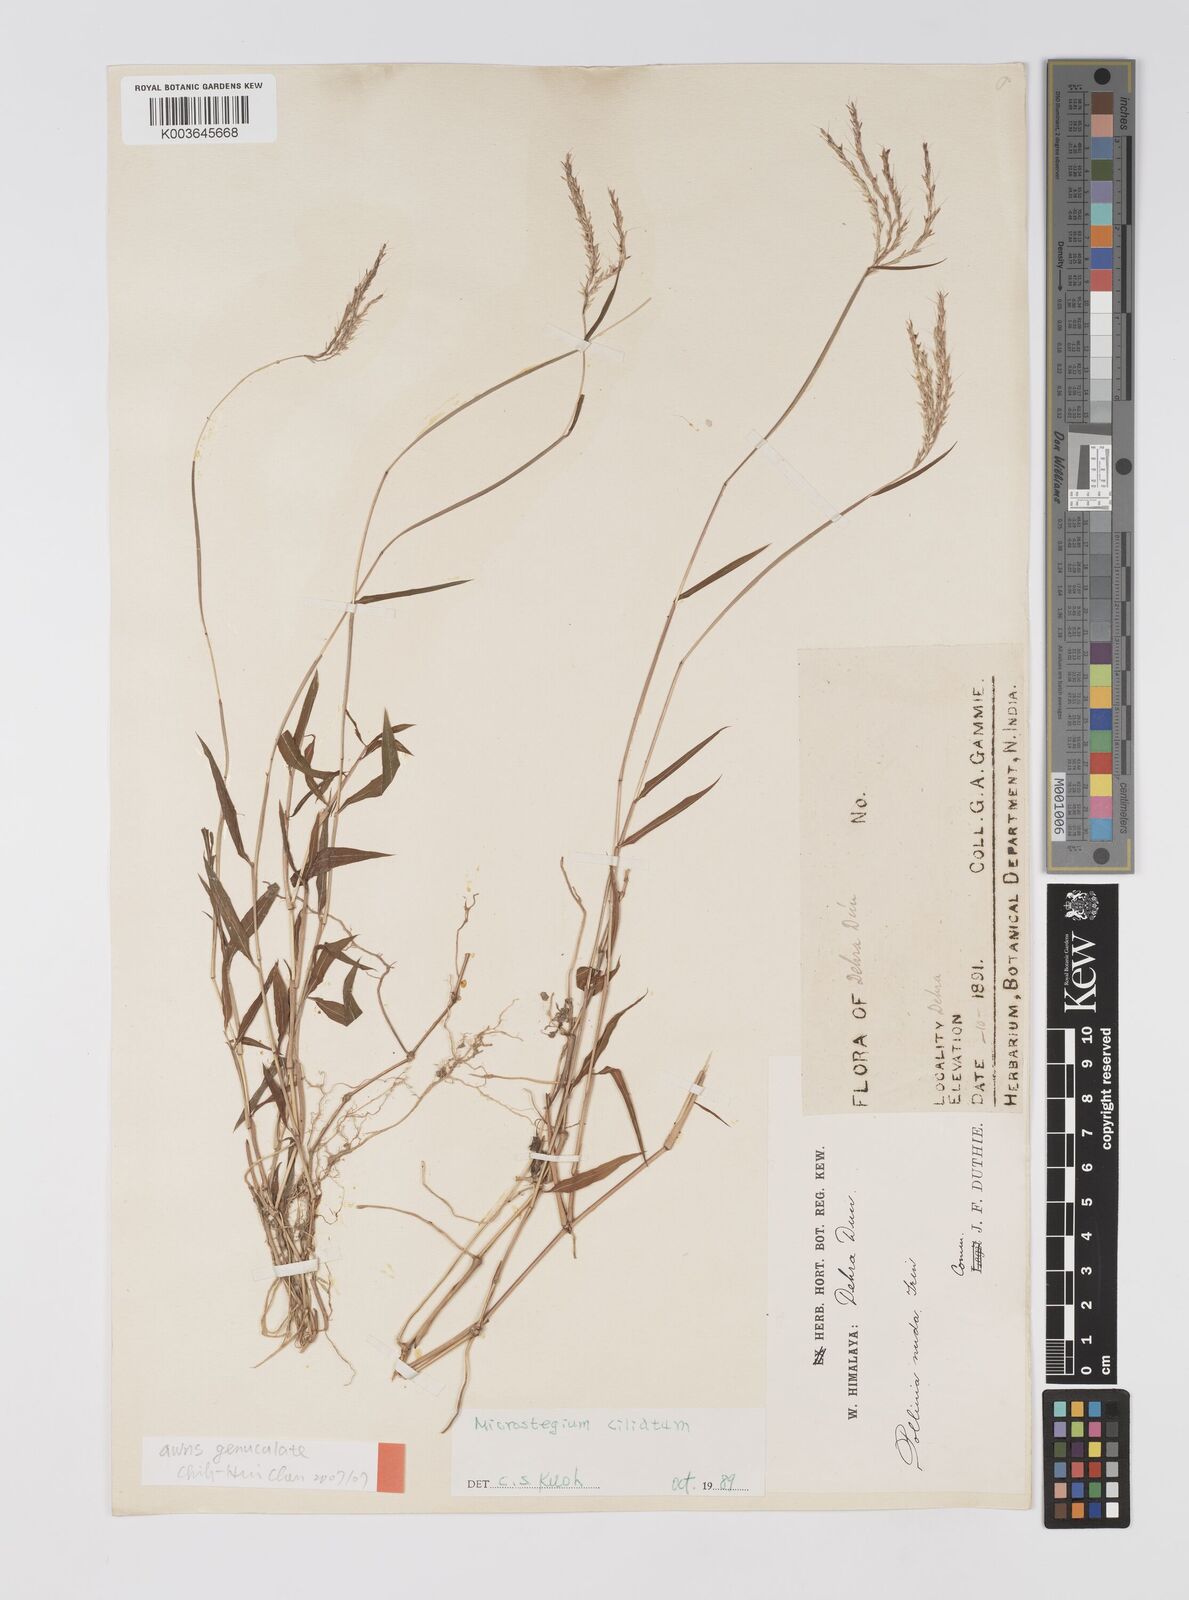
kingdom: Plantae
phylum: Tracheophyta
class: Liliopsida
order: Poales
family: Poaceae
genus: Microstegium
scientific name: Microstegium fasciculatum
